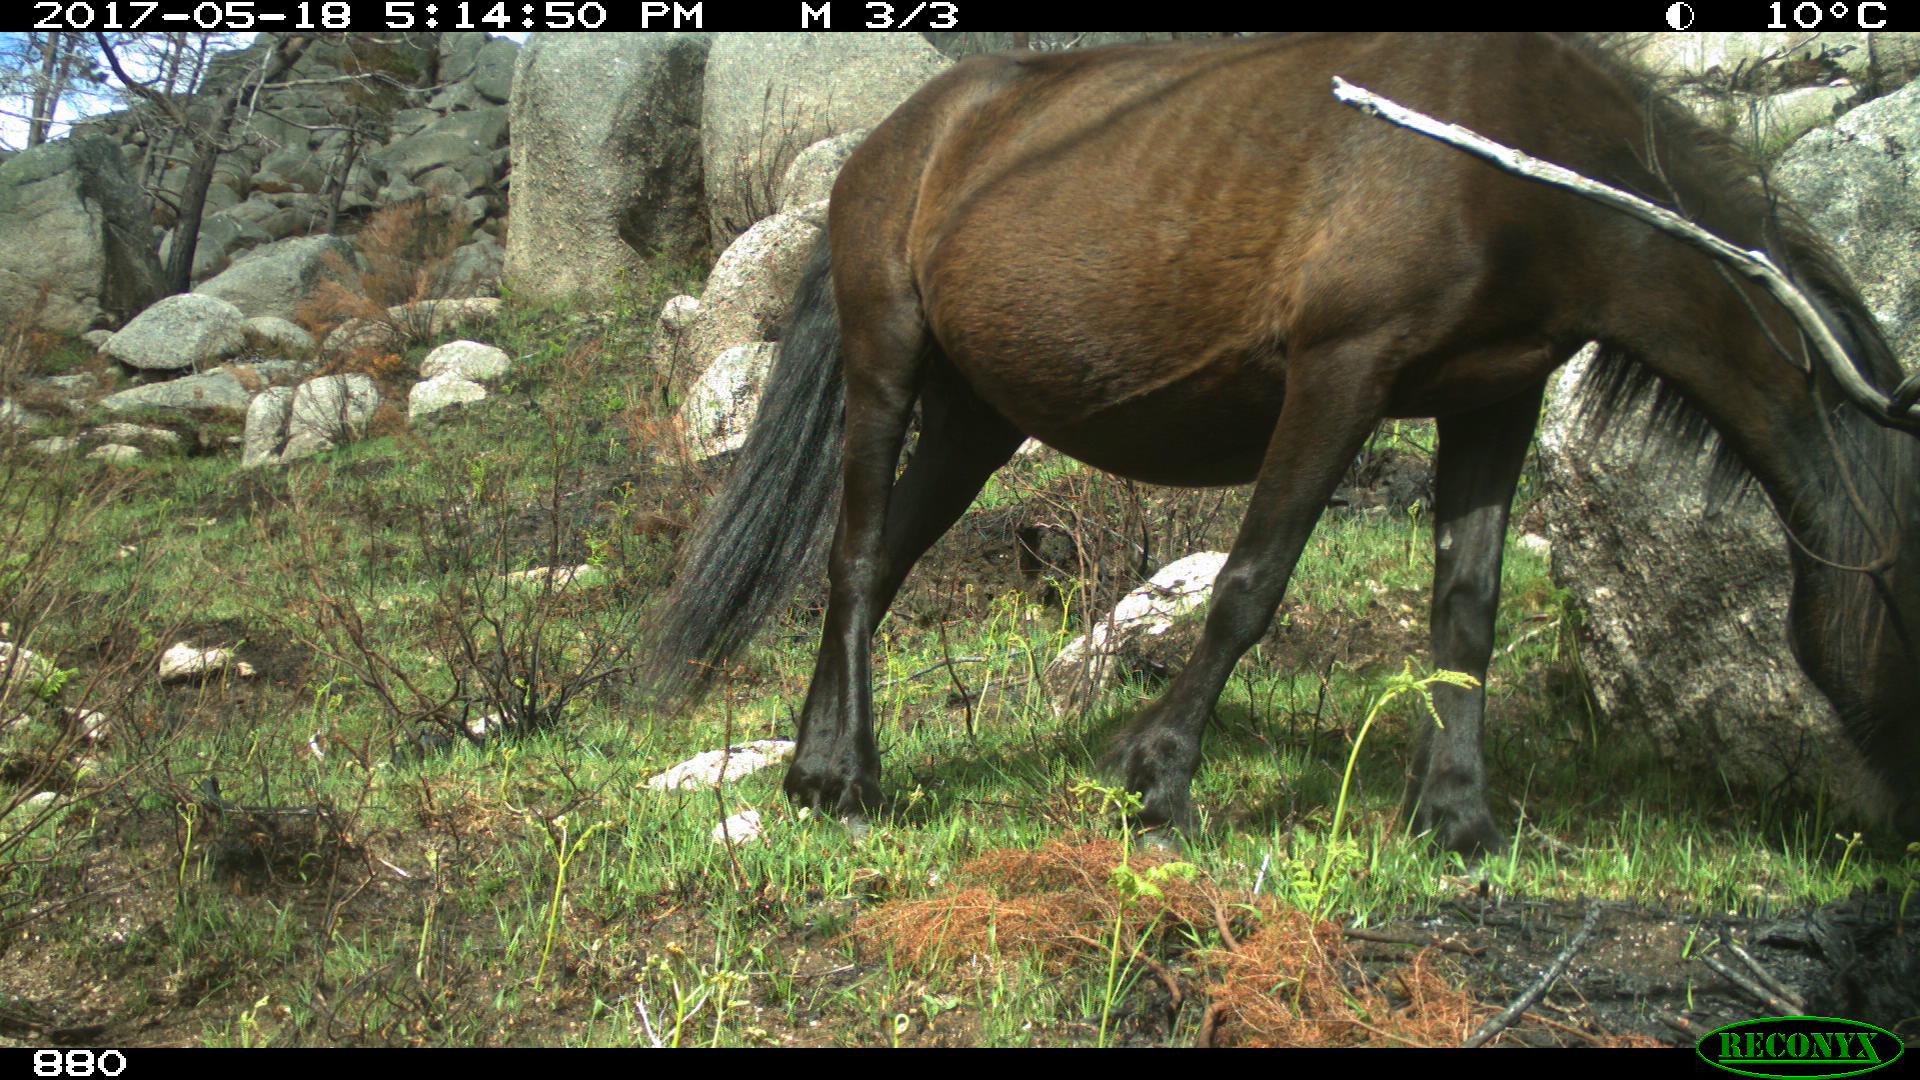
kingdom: Animalia
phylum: Chordata
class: Mammalia
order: Perissodactyla
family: Equidae
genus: Equus
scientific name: Equus caballus
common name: Horse
